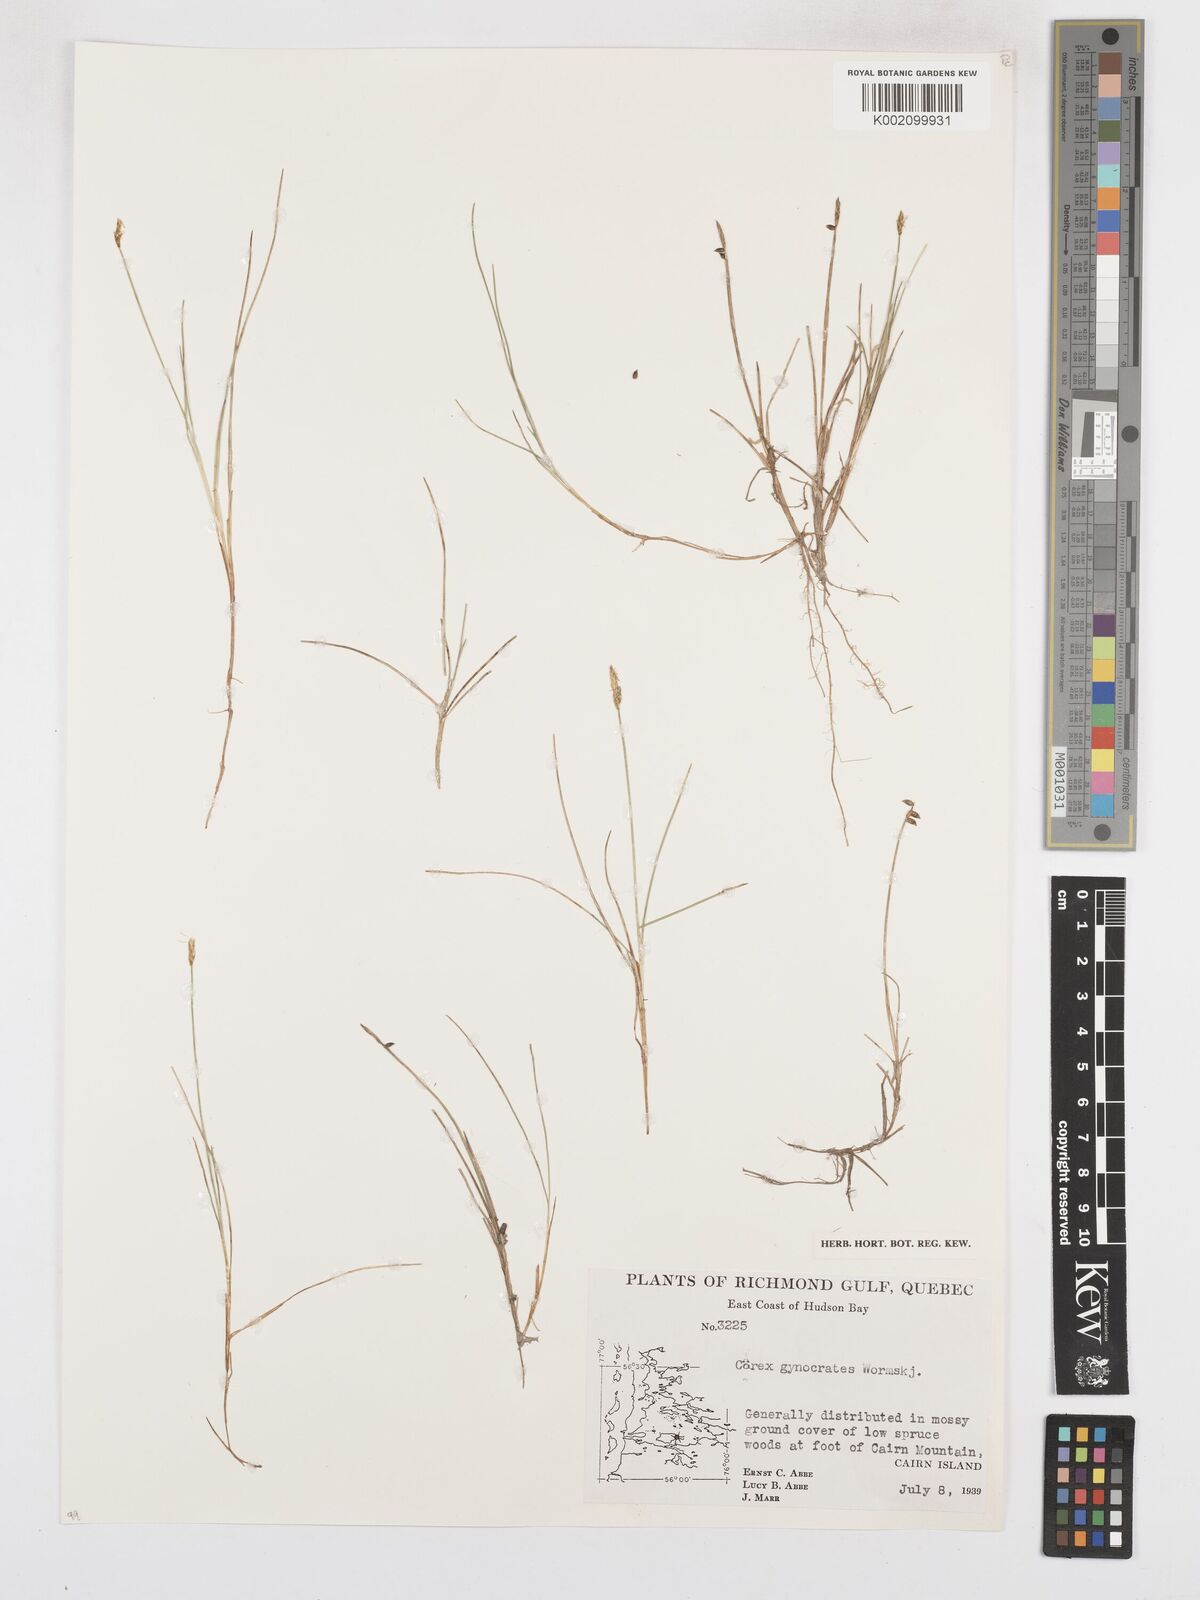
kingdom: Plantae
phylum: Tracheophyta
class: Liliopsida
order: Poales
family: Cyperaceae
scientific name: Cyperaceae
